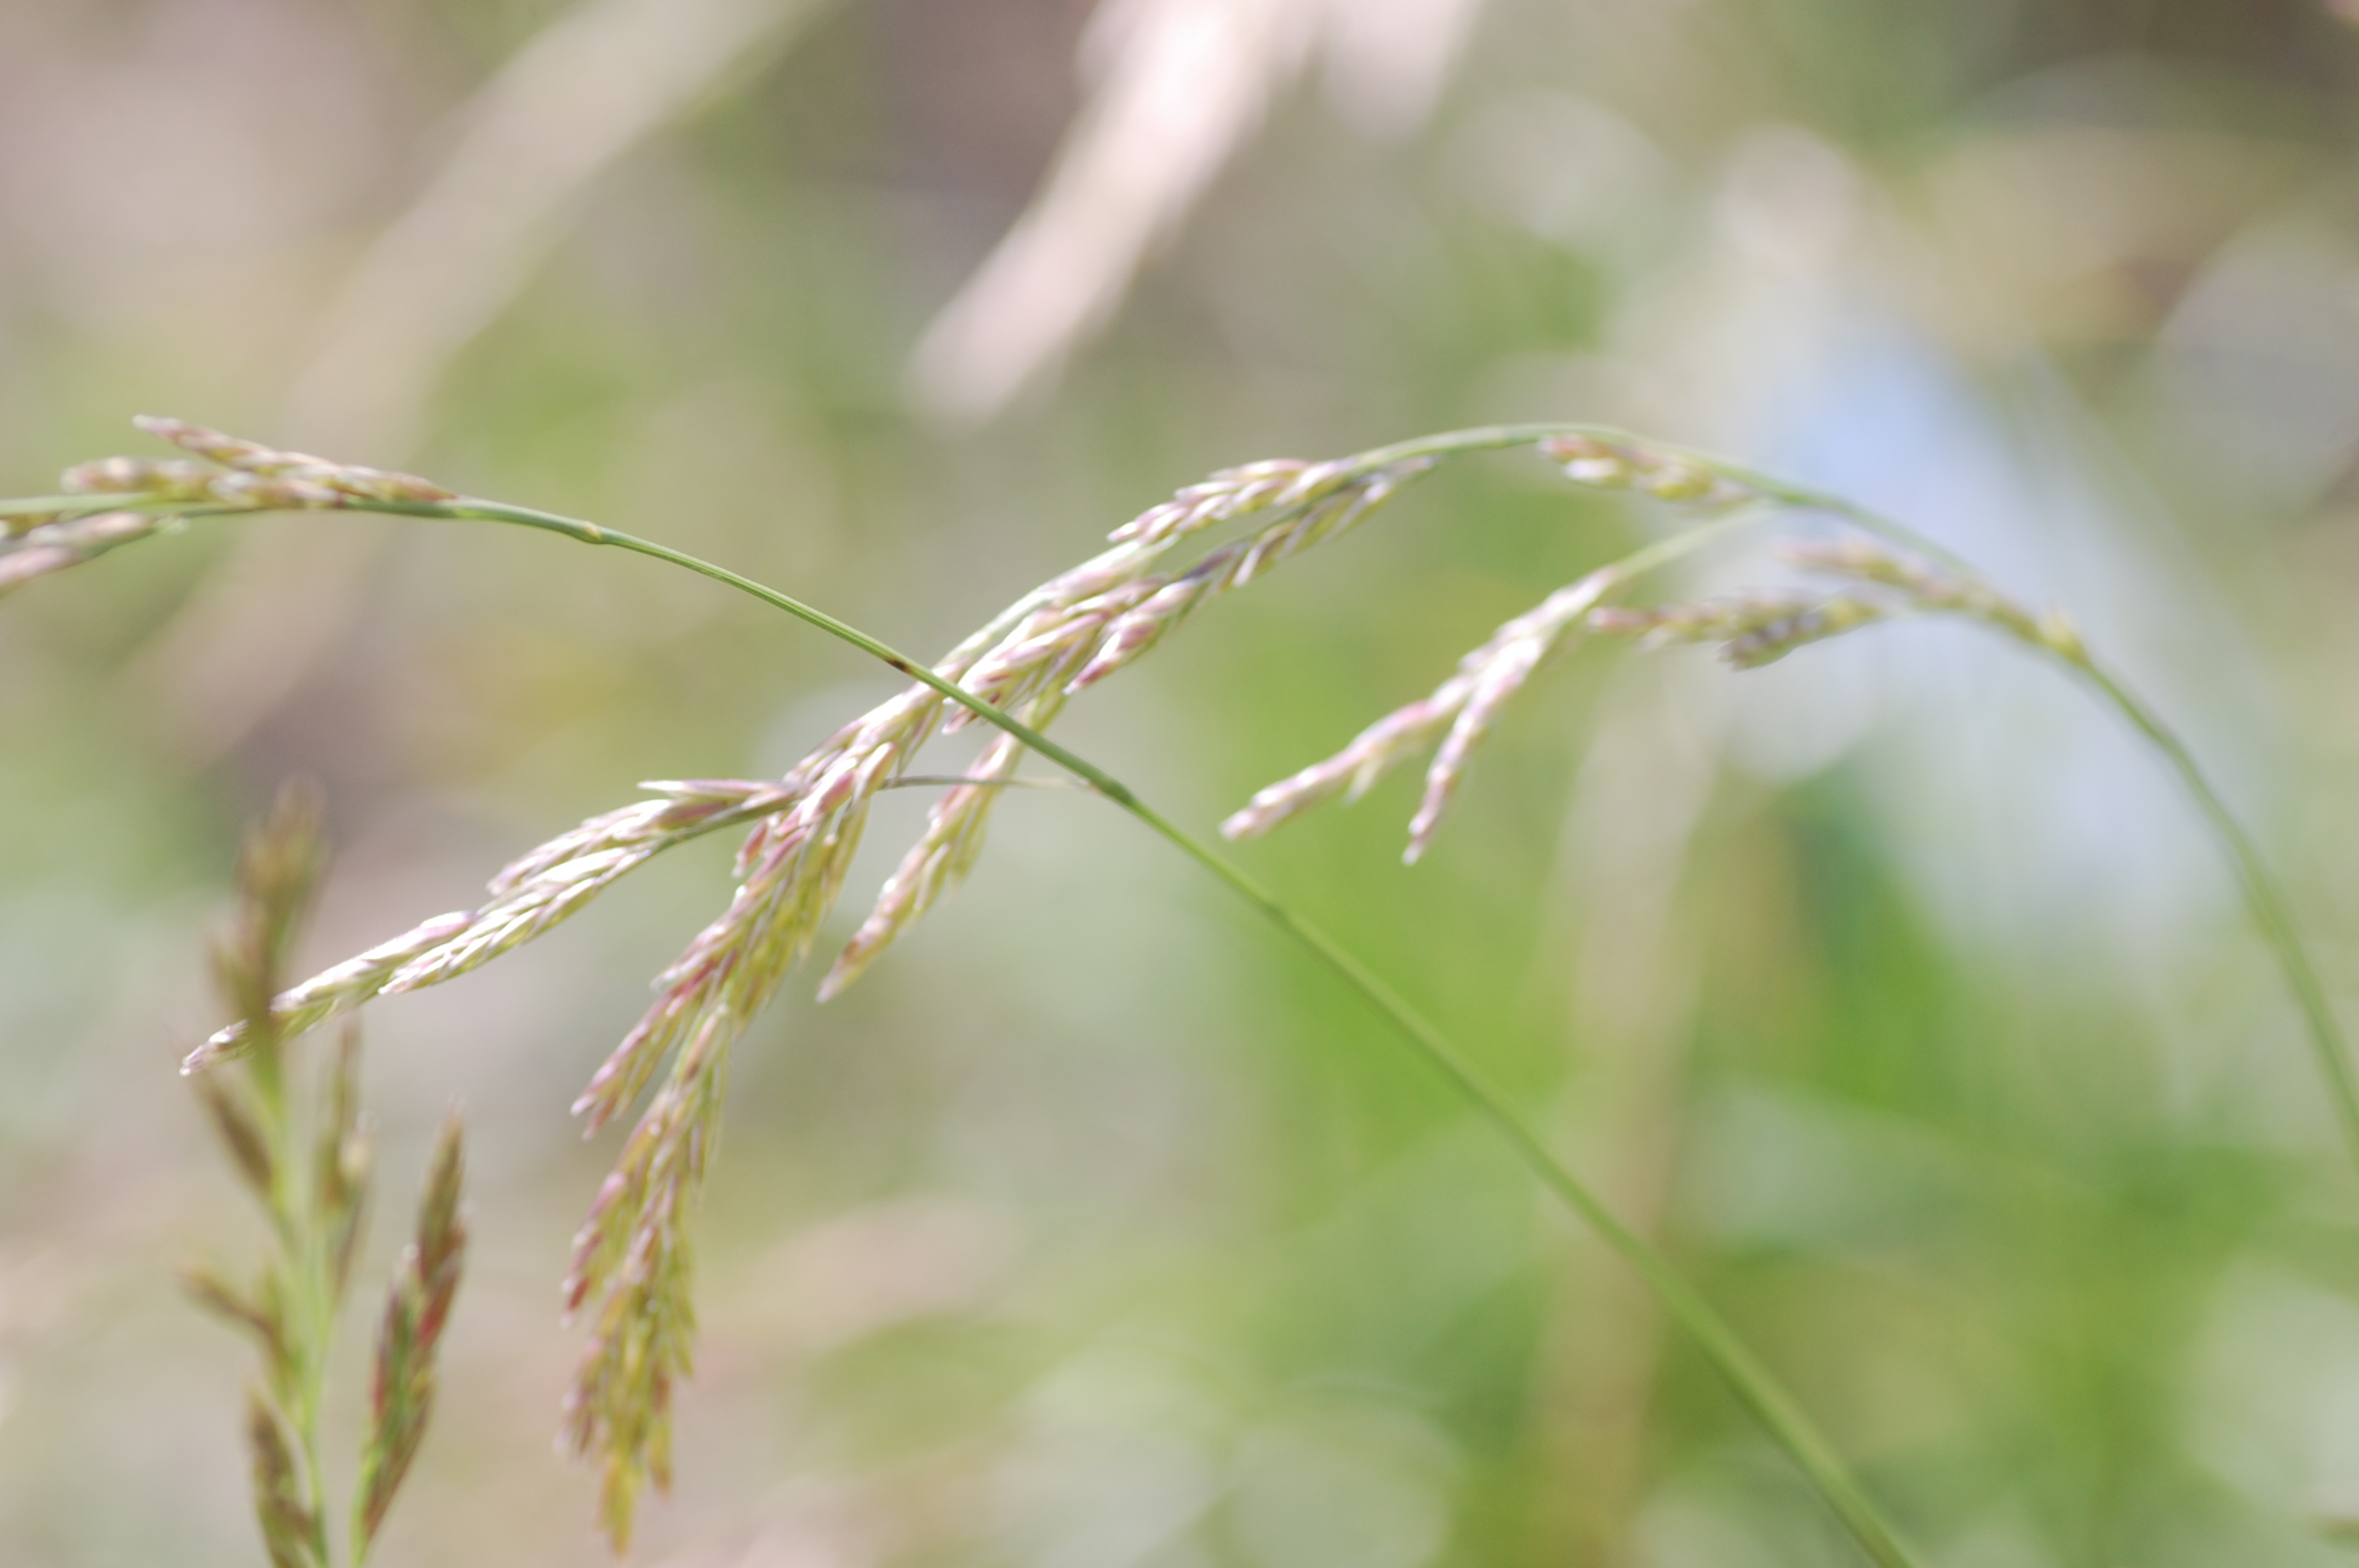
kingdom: Plantae
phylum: Tracheophyta
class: Liliopsida
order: Poales
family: Poaceae
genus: Lolium
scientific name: Lolium pratense
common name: Dover grass
